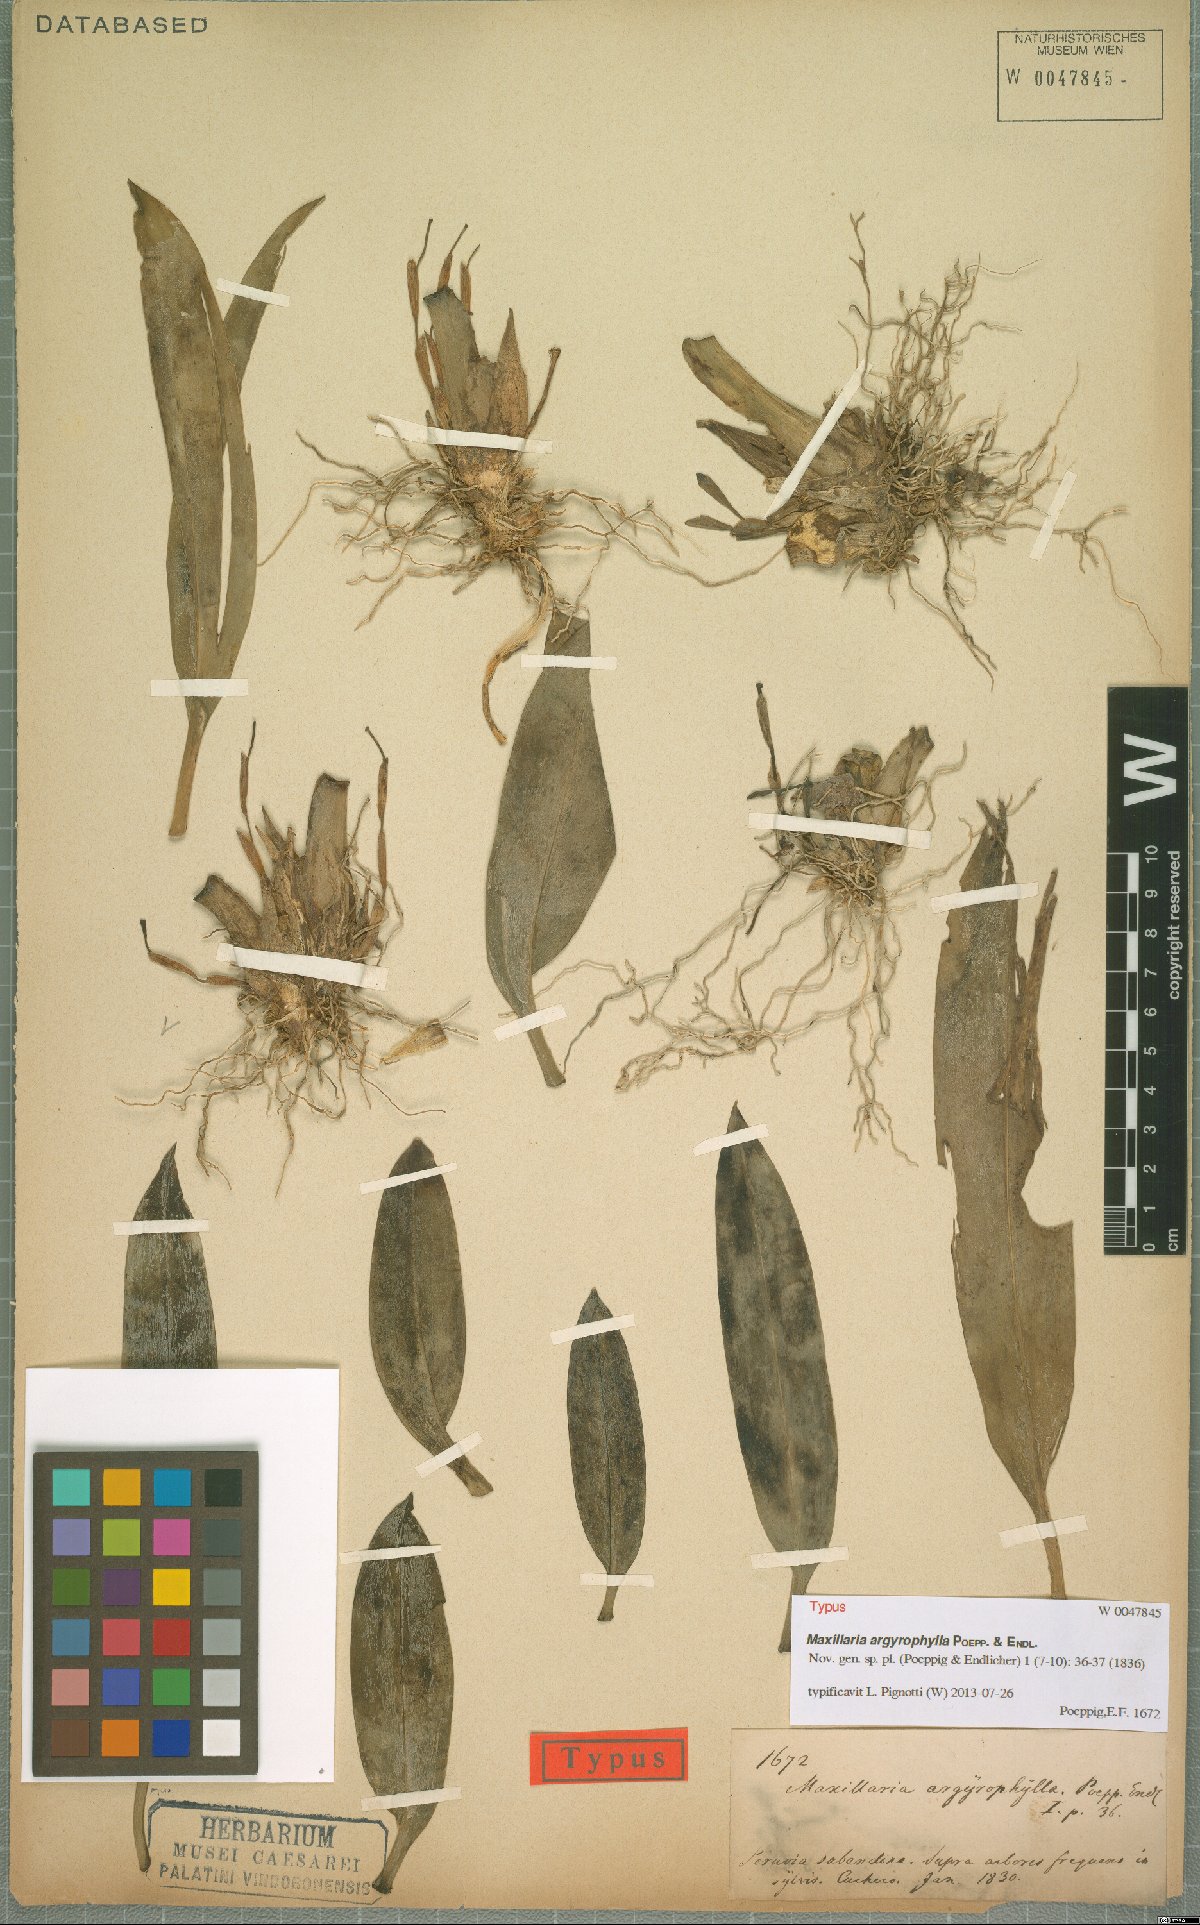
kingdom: Plantae
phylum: Tracheophyta
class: Liliopsida
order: Asparagales
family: Orchidaceae
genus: Maxillaria
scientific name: Maxillaria argyrophylla
